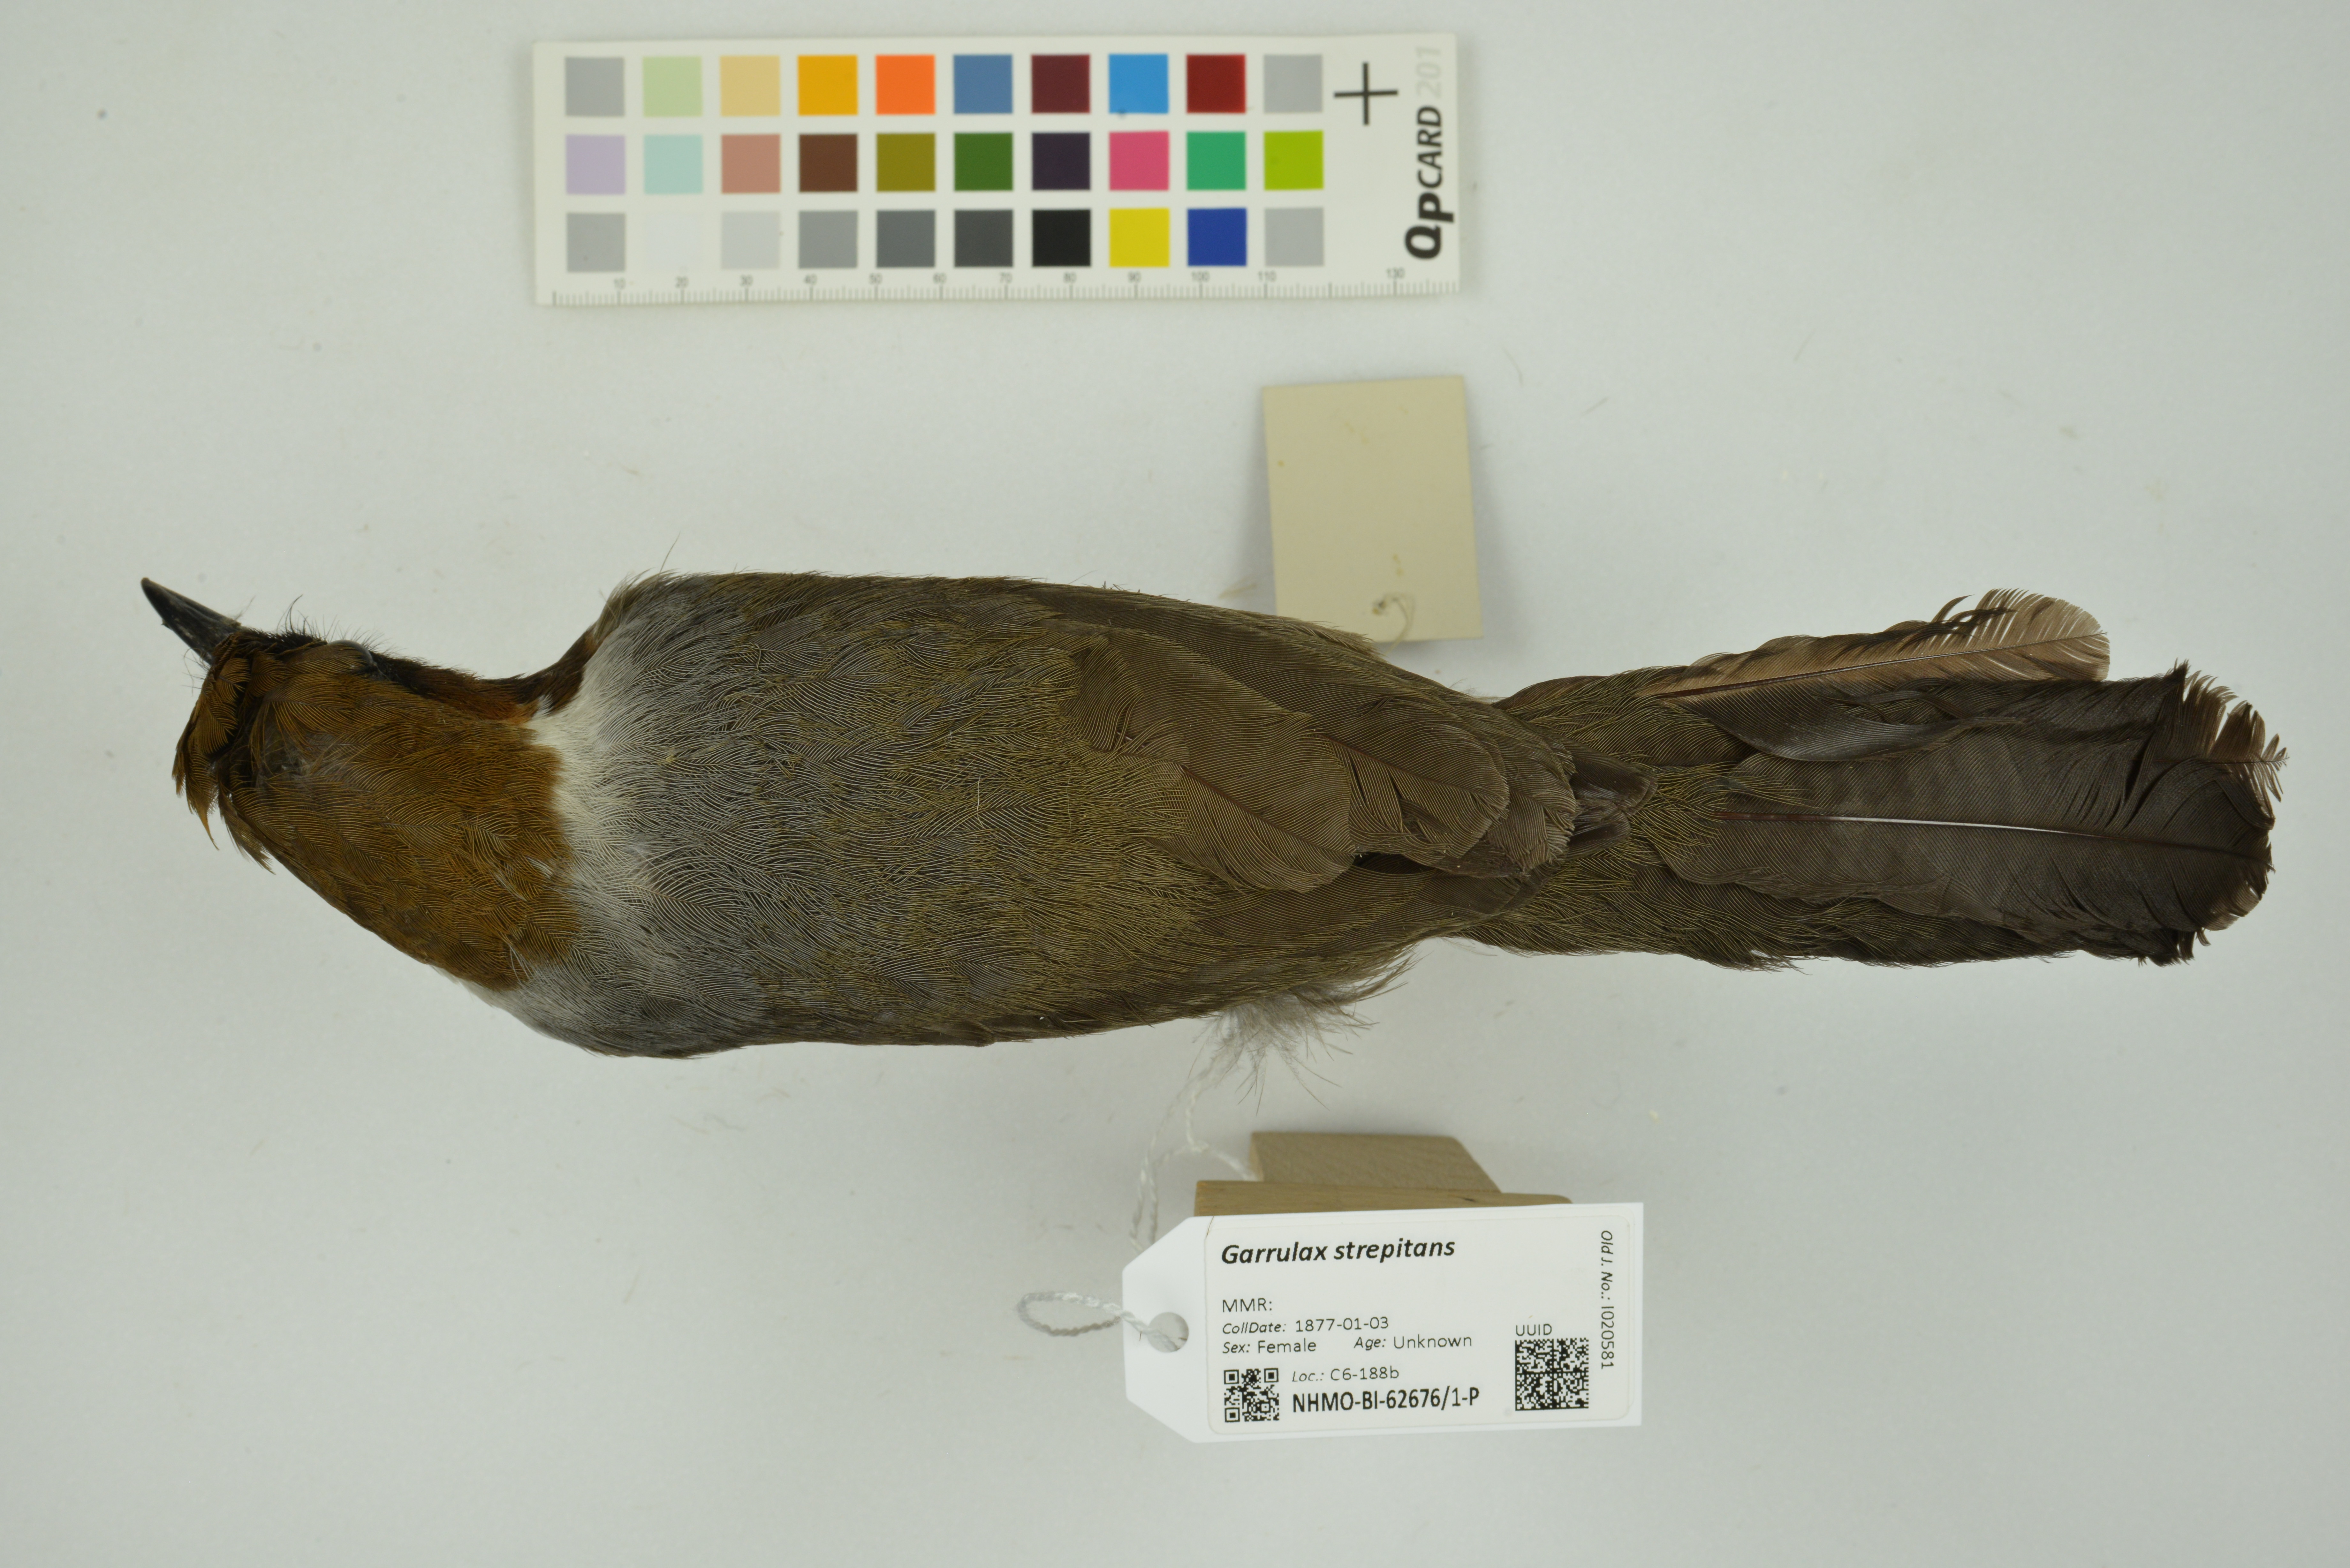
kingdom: Animalia
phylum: Chordata
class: Aves
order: Passeriformes
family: Leiothrichidae
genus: Garrulax
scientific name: Garrulax strepitans
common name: White-necked laughingthrush
